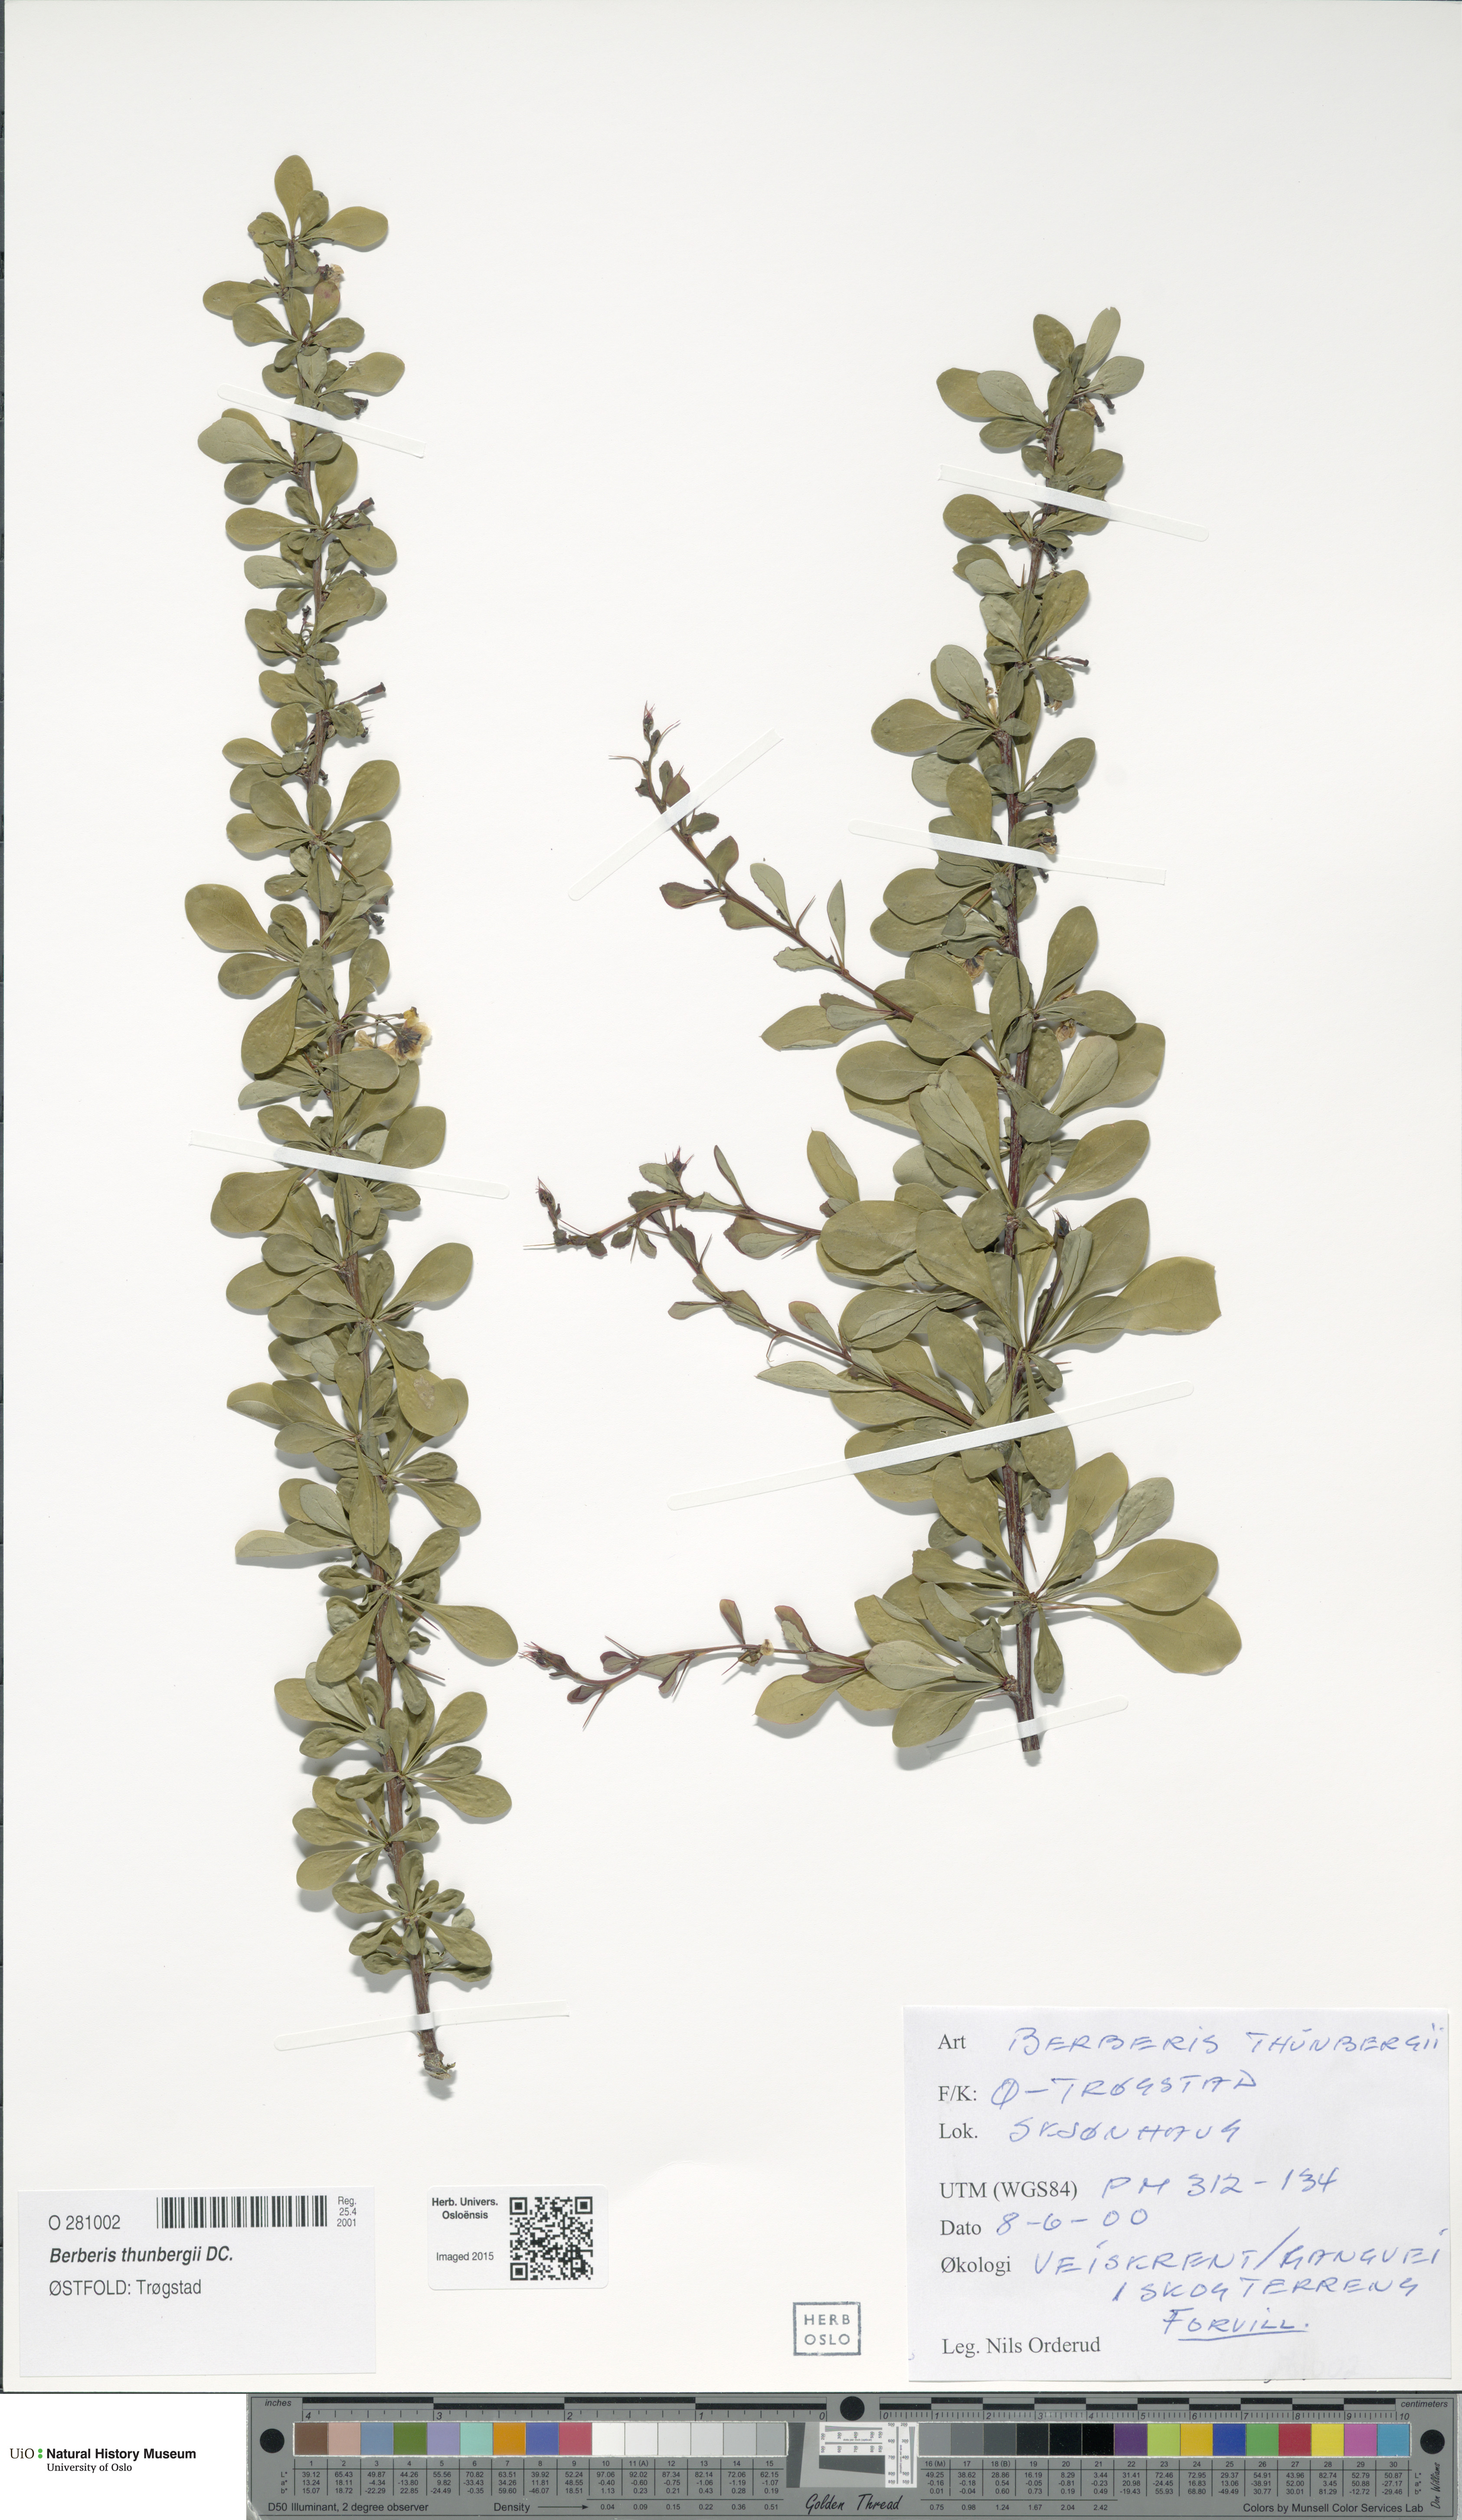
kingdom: Plantae
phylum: Tracheophyta
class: Magnoliopsida
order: Ranunculales
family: Berberidaceae
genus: Berberis
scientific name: Berberis thunbergii
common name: Japanese barberry
